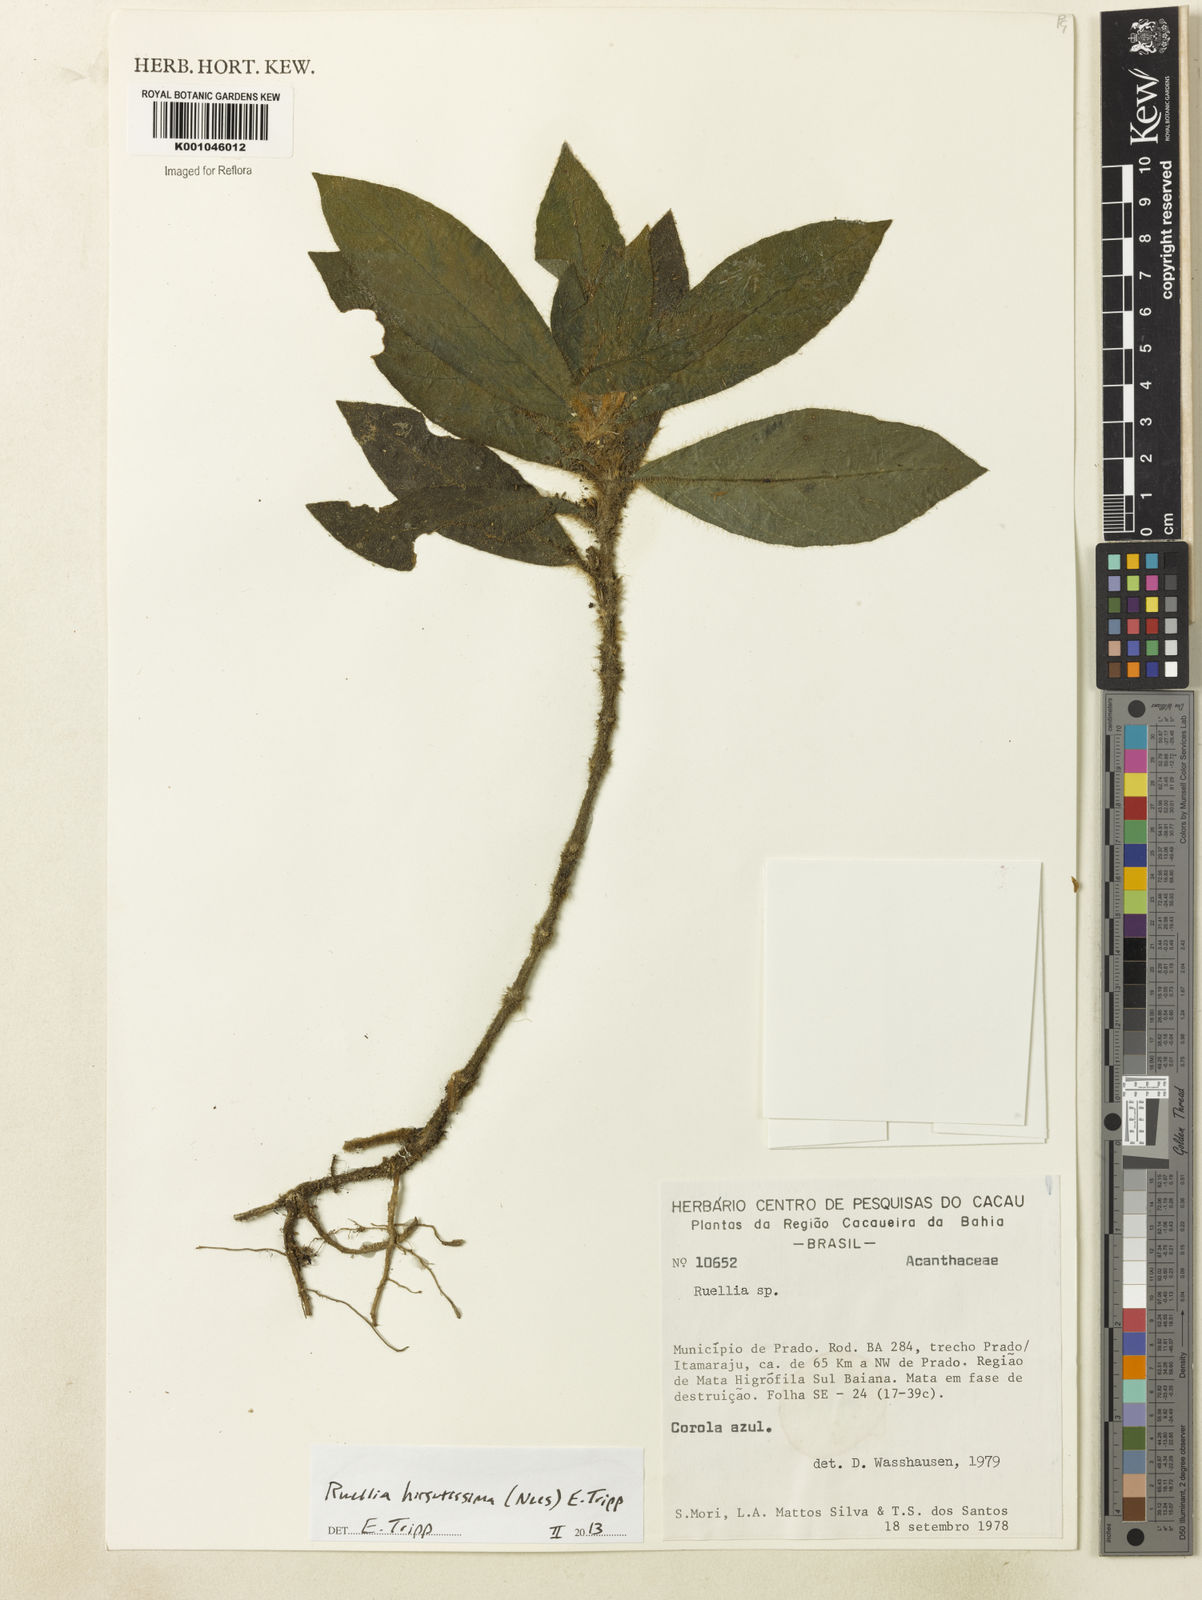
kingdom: Plantae
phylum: Tracheophyta
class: Magnoliopsida
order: Lamiales
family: Acanthaceae
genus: Ruellia
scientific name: Ruellia hirsutissima
